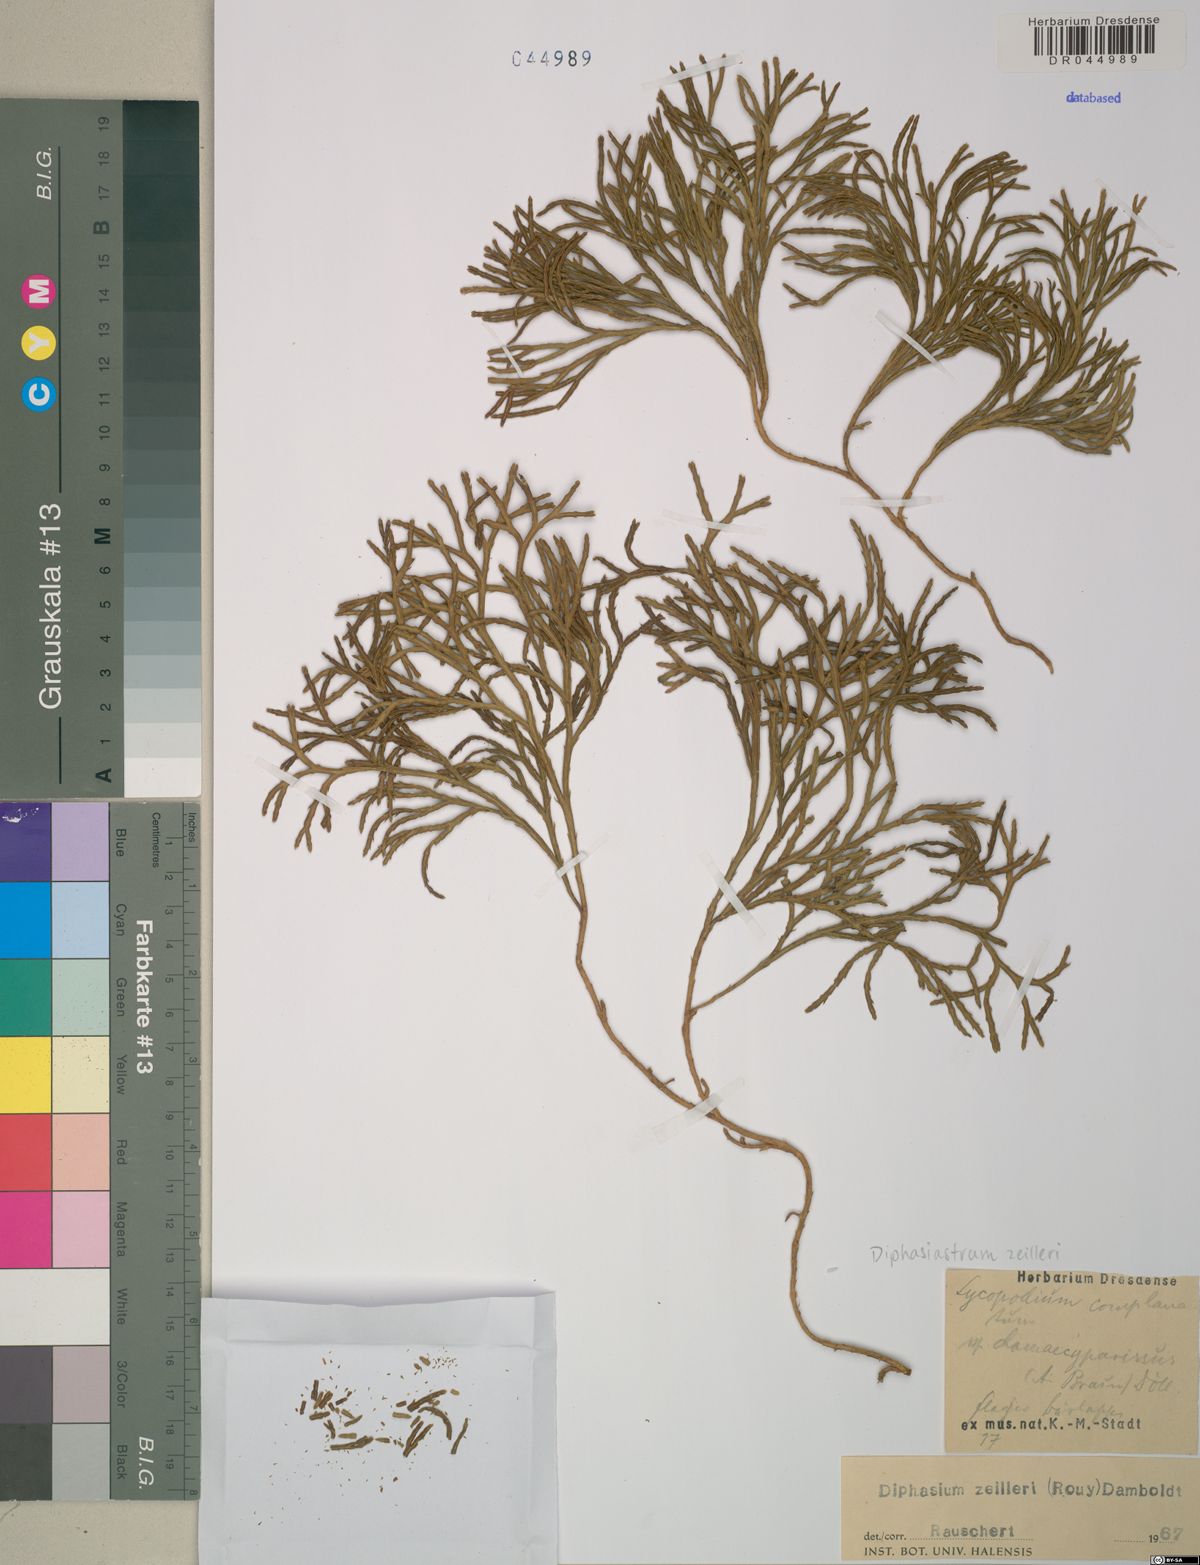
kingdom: Plantae
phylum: Tracheophyta
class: Lycopodiopsida
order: Lycopodiales
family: Lycopodiaceae
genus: Diphasiastrum
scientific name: Diphasiastrum zeilleri
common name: Zeiller's clubmoss
